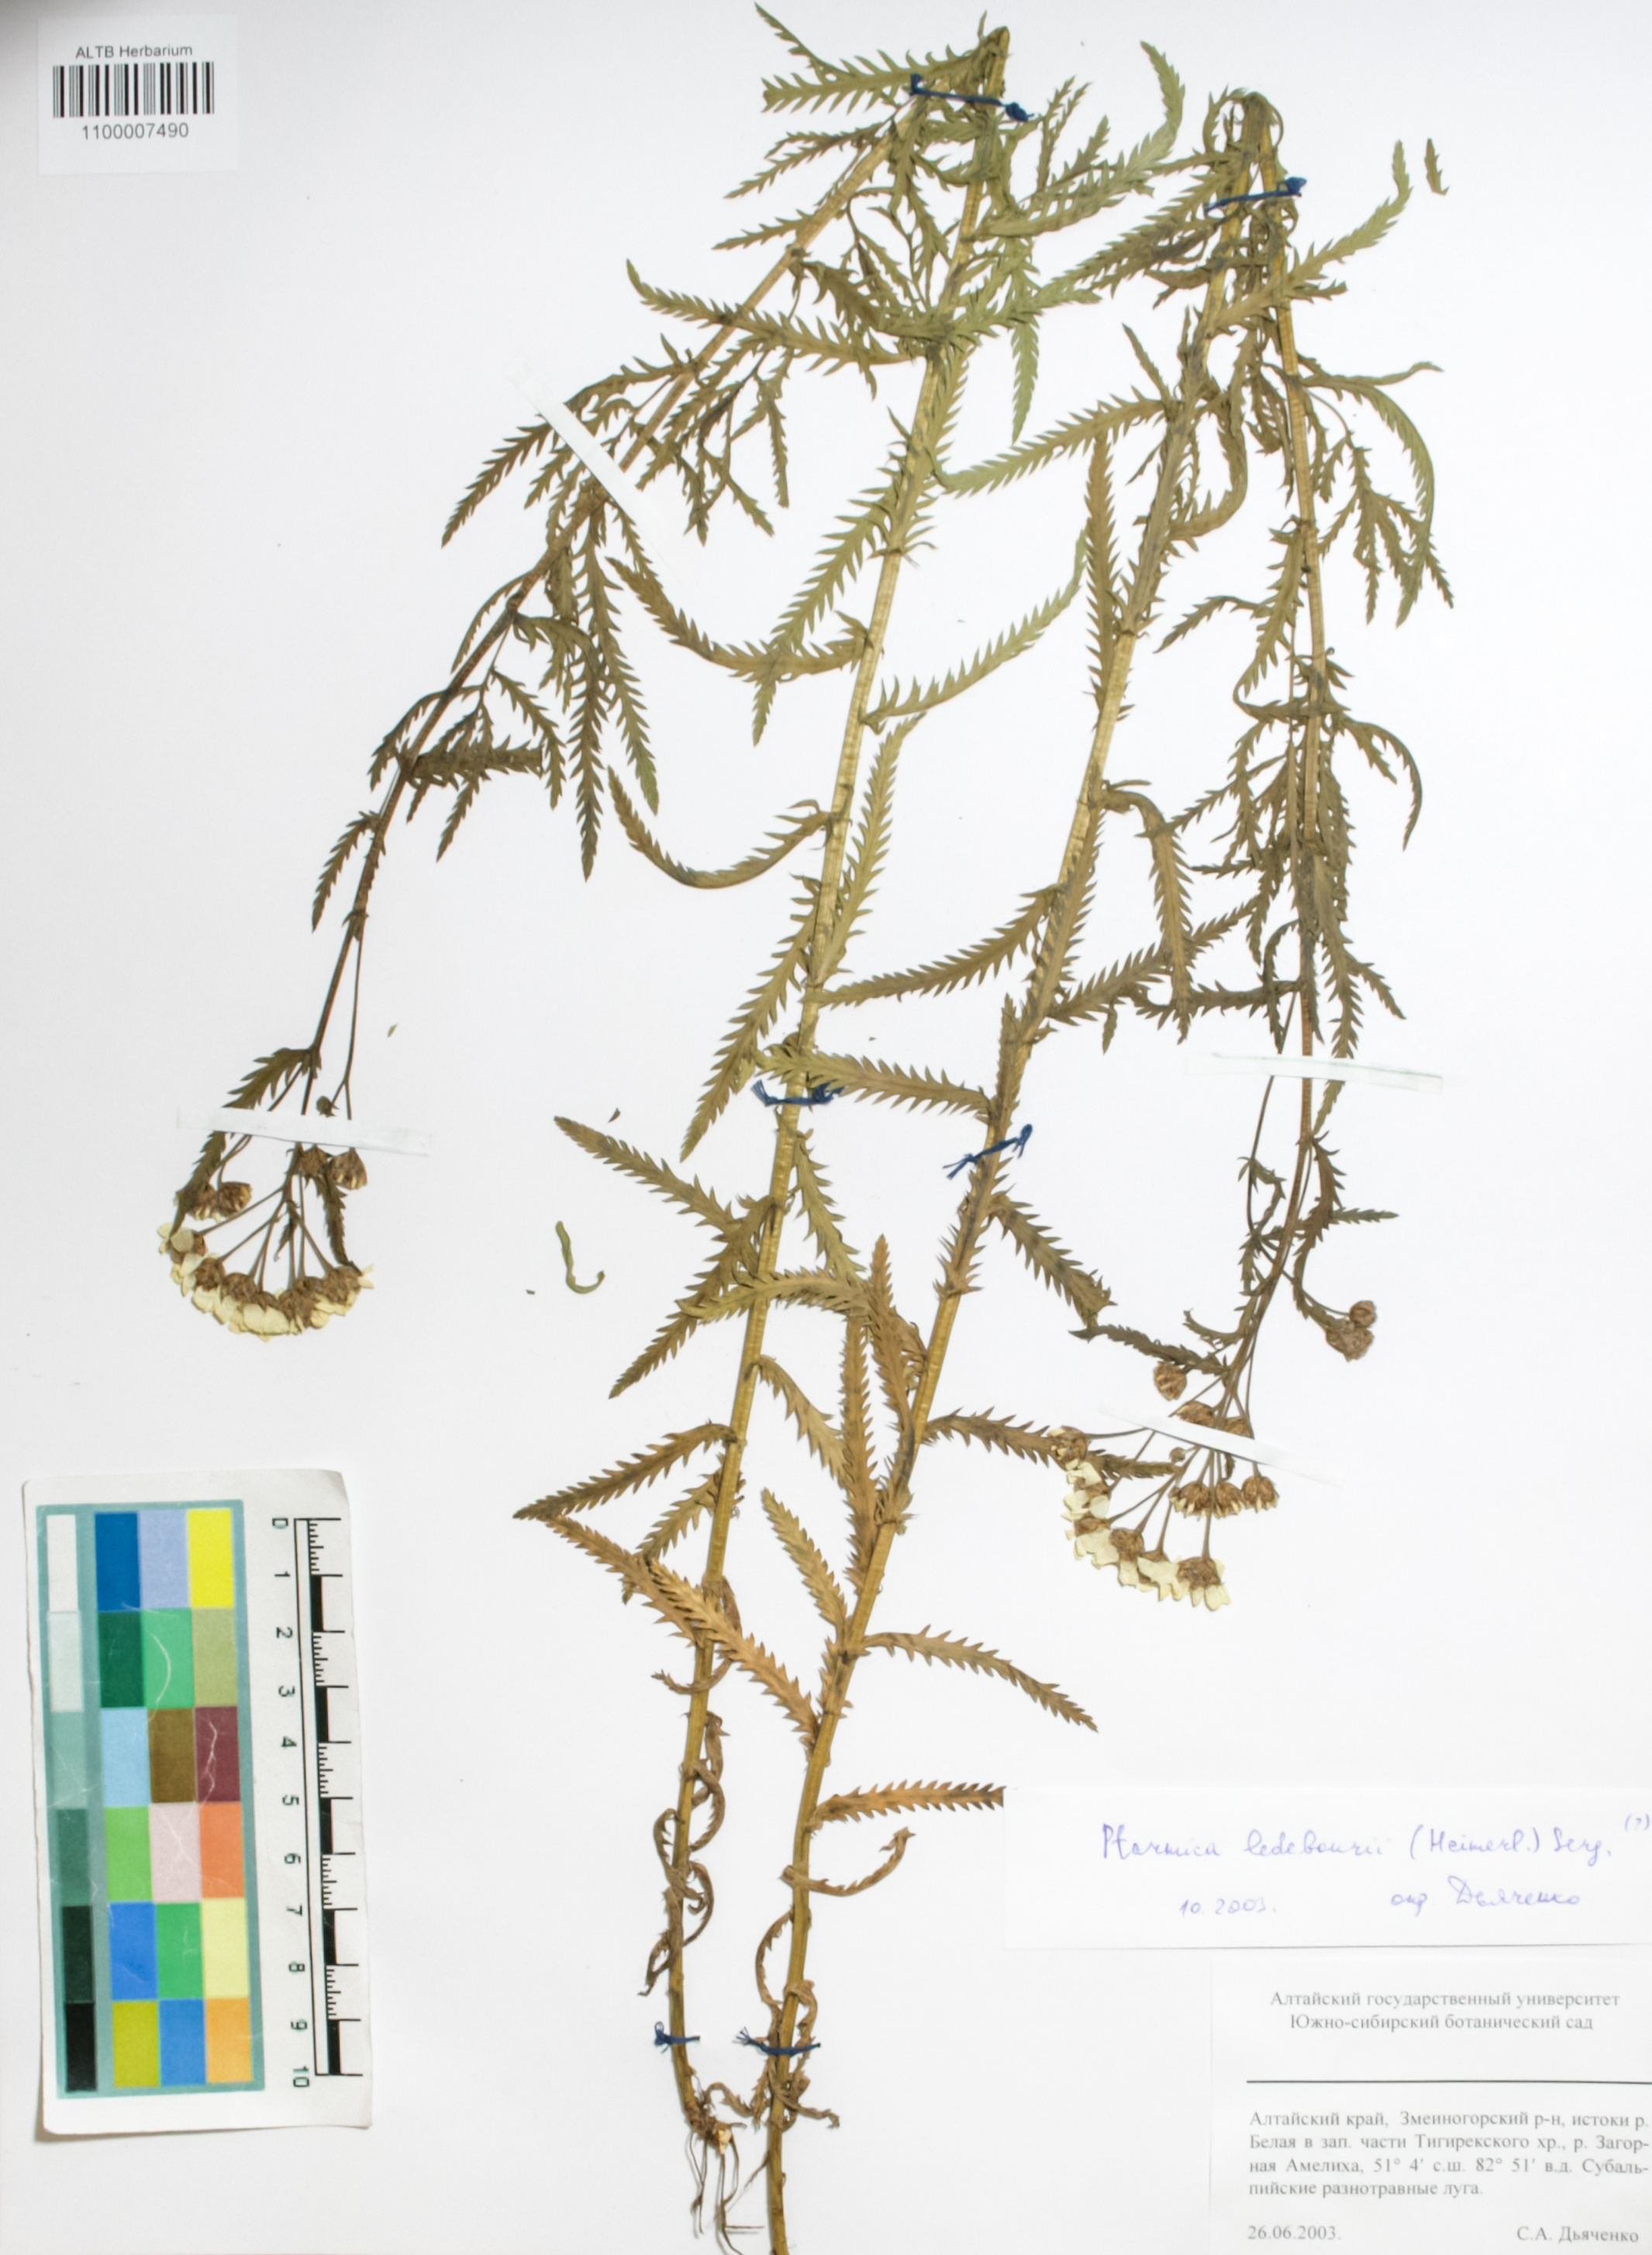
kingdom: Plantae
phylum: Tracheophyta
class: Magnoliopsida
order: Asterales
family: Asteraceae
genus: Achillea
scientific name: Achillea ledebourii
